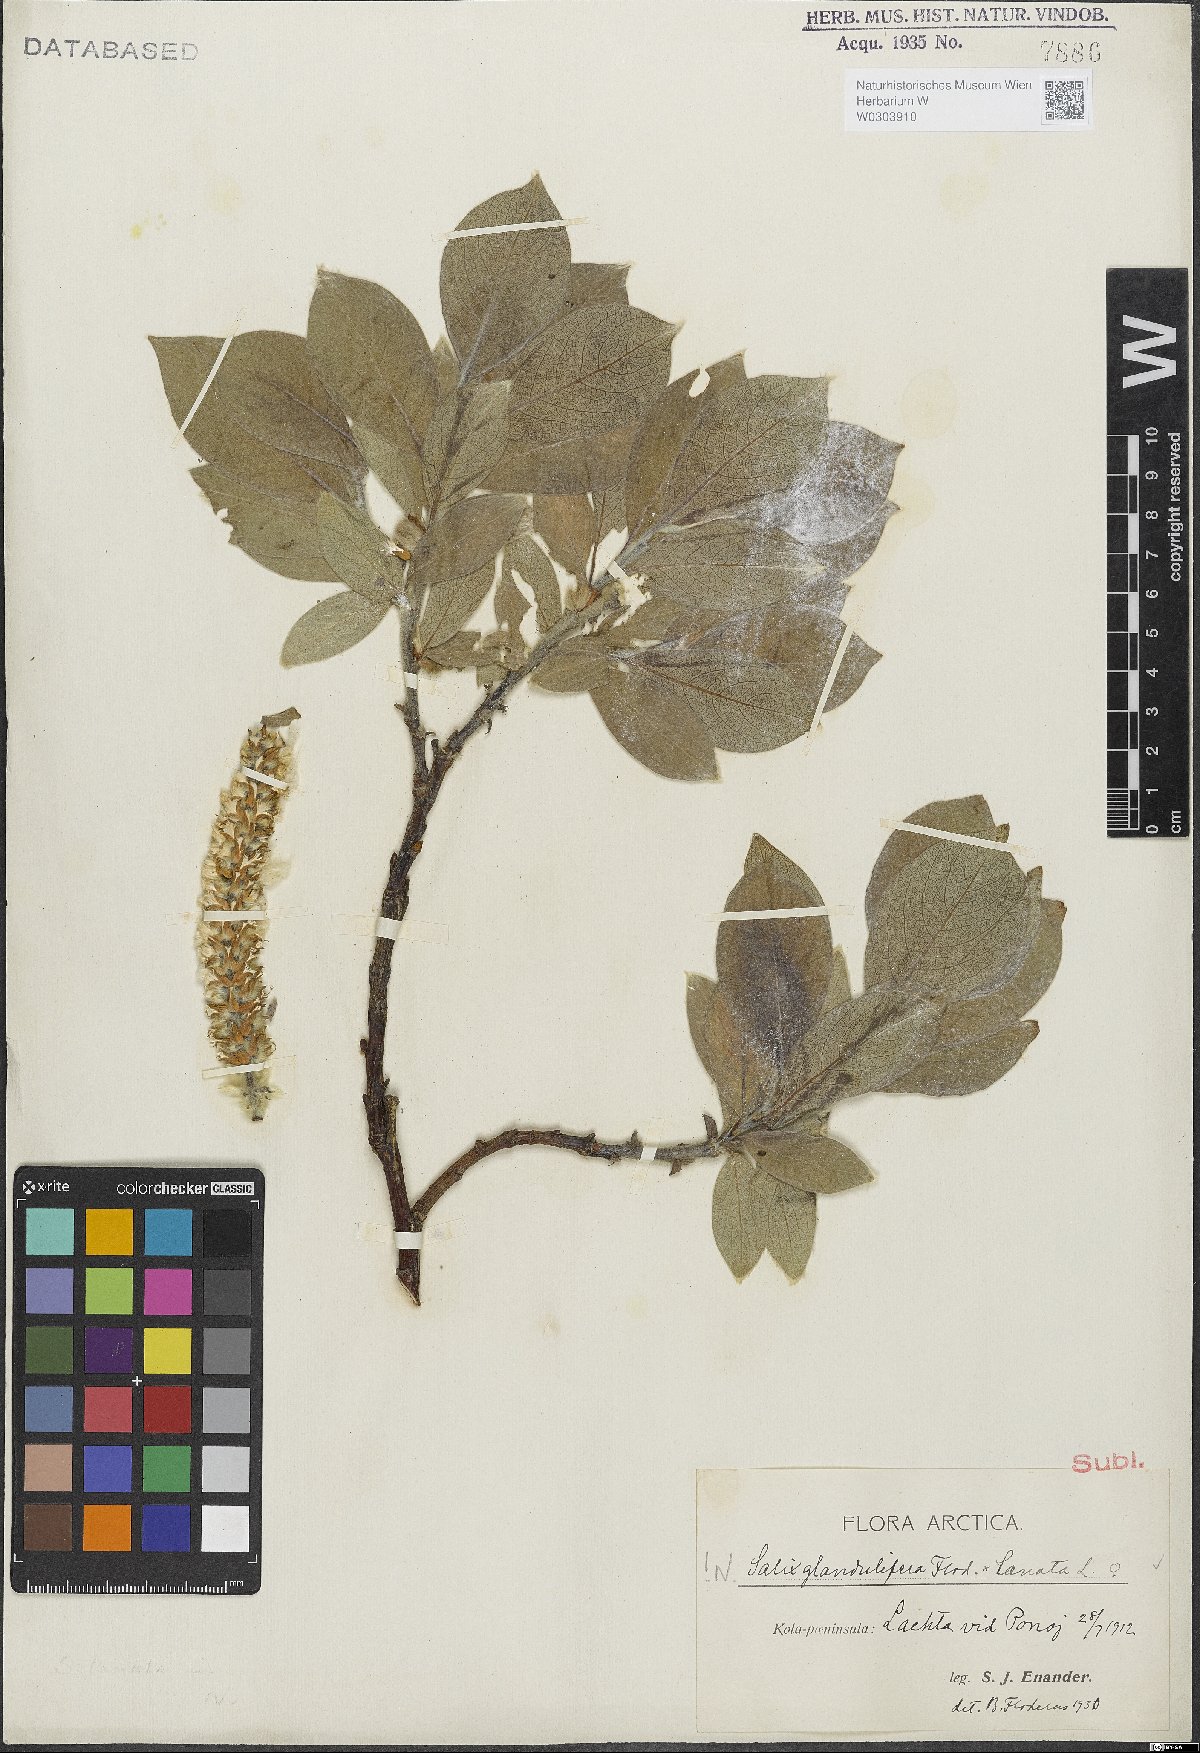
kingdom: Plantae
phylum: Tracheophyta
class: Magnoliopsida
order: Malpighiales
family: Salicaceae
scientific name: Salicaceae
